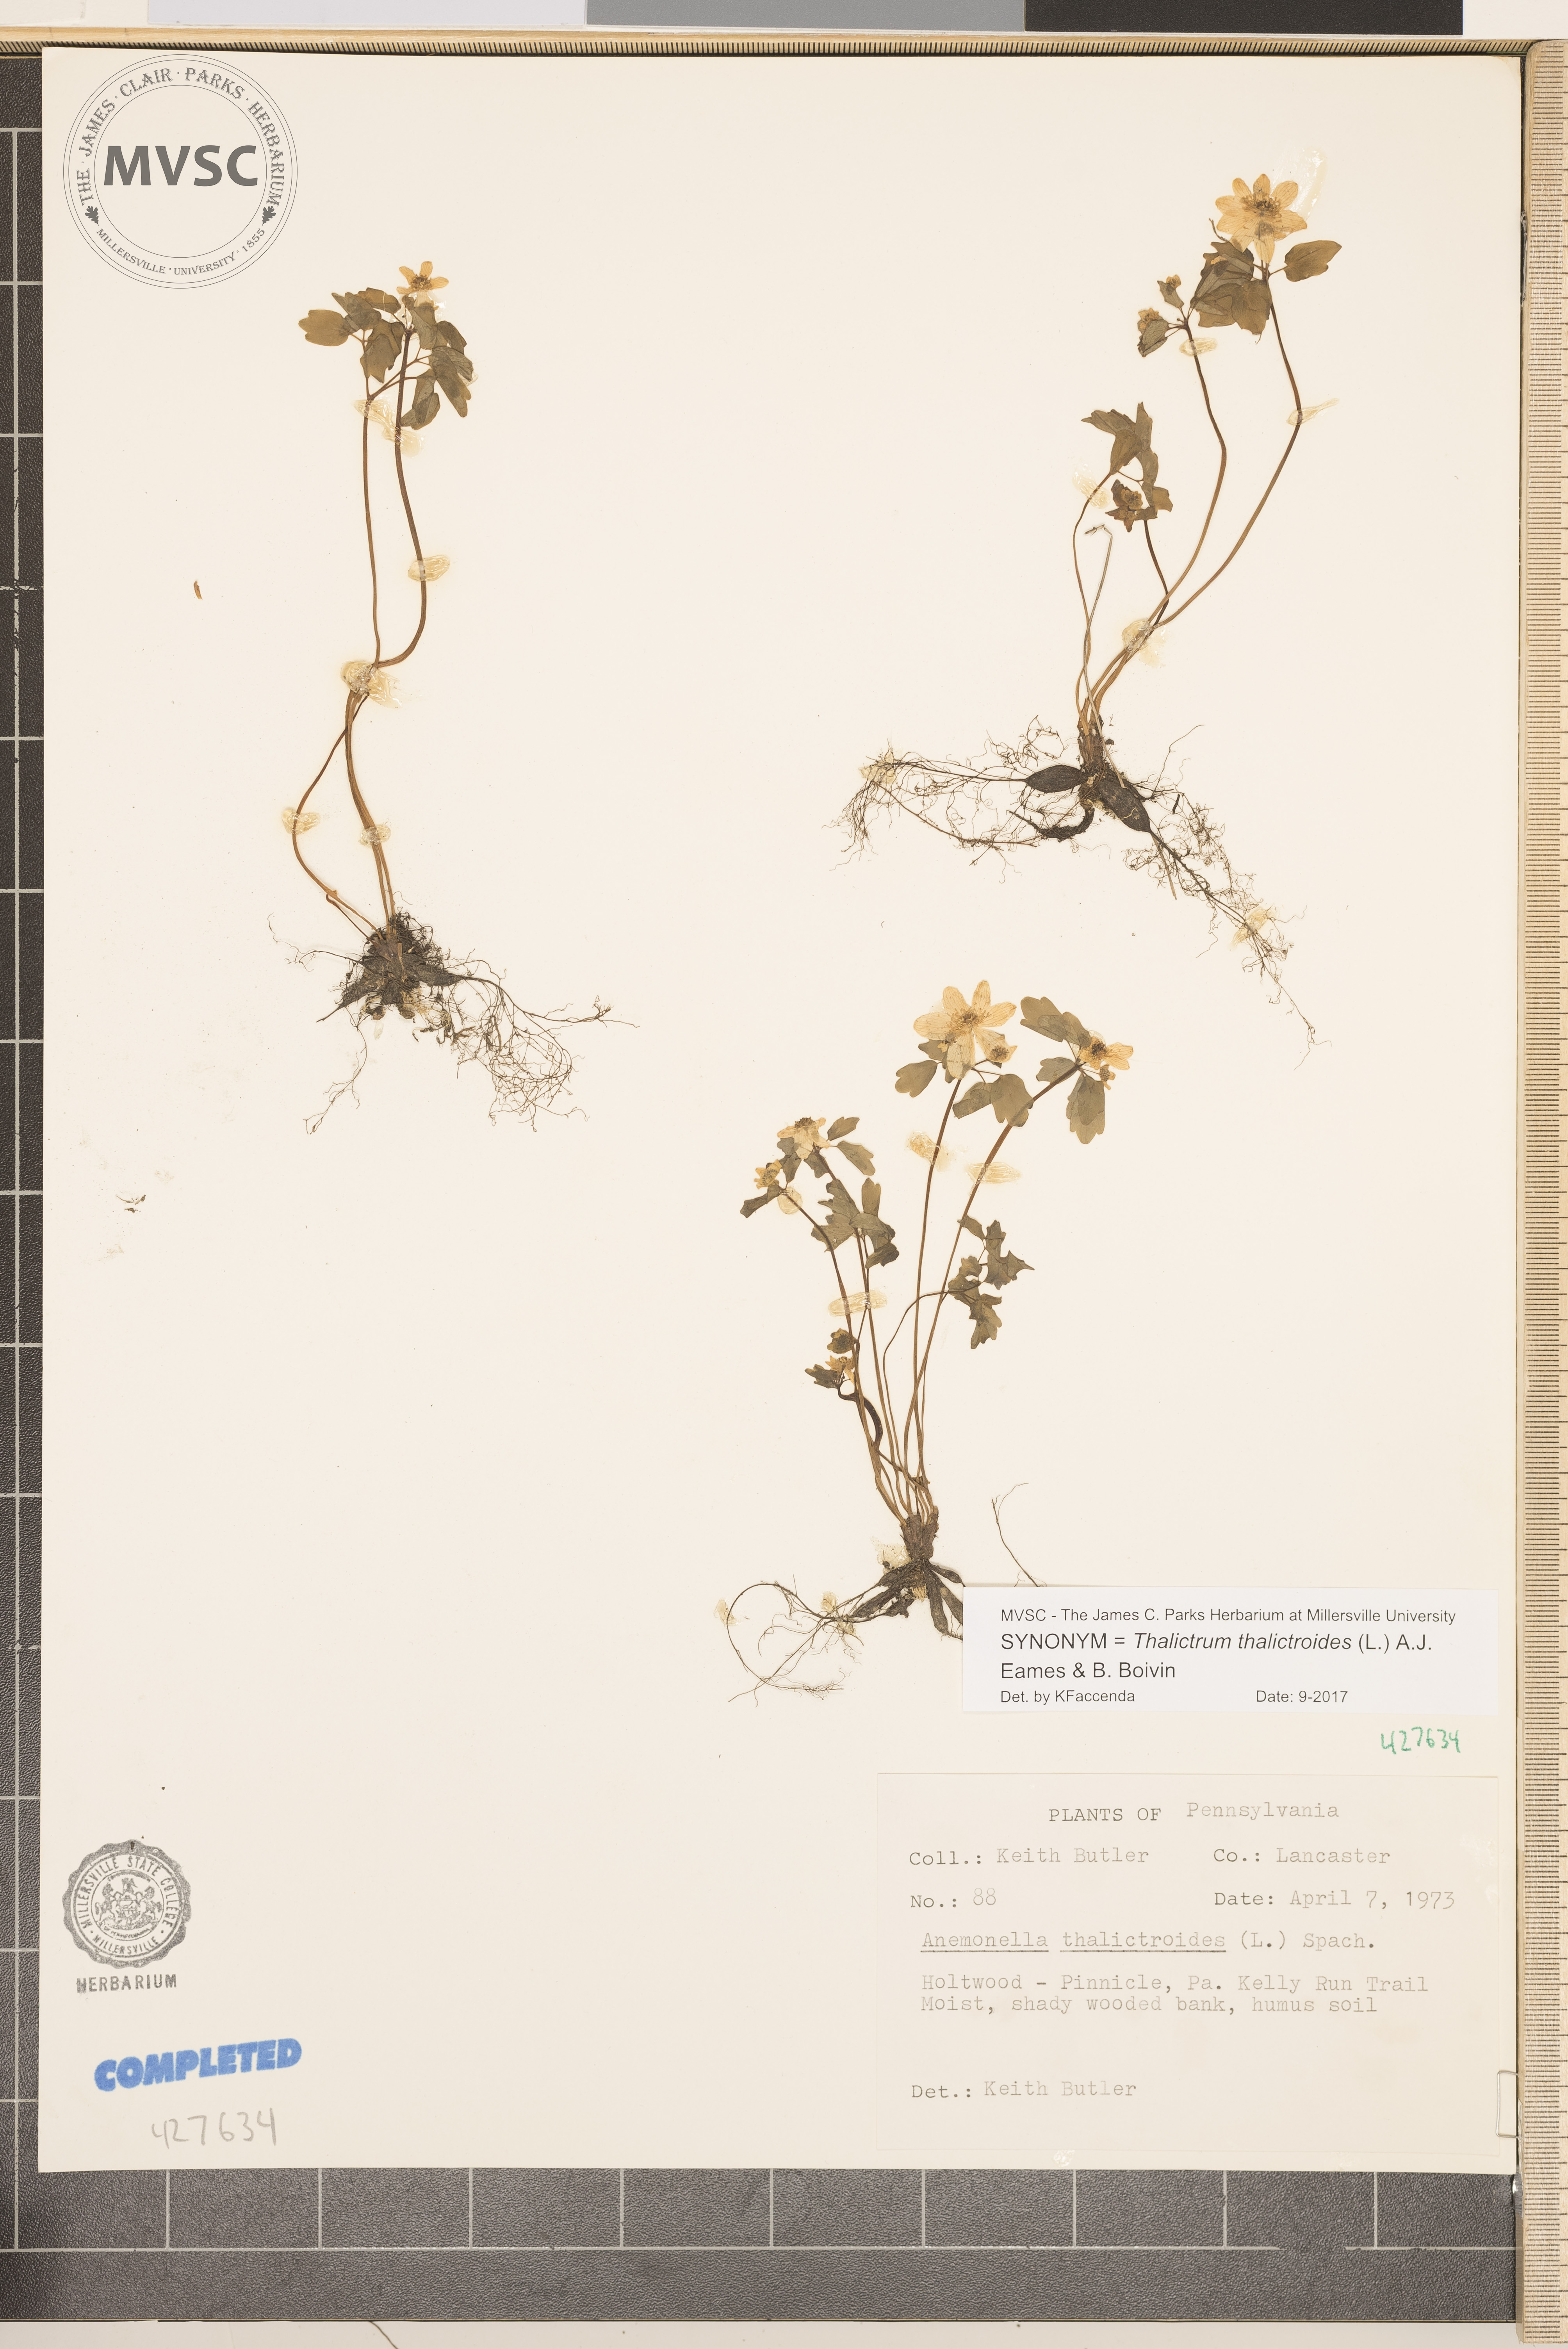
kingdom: Plantae
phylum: Tracheophyta
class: Magnoliopsida
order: Ranunculales
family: Ranunculaceae
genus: Thalictrum
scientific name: Thalictrum thalictroides
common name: Rue anemone
